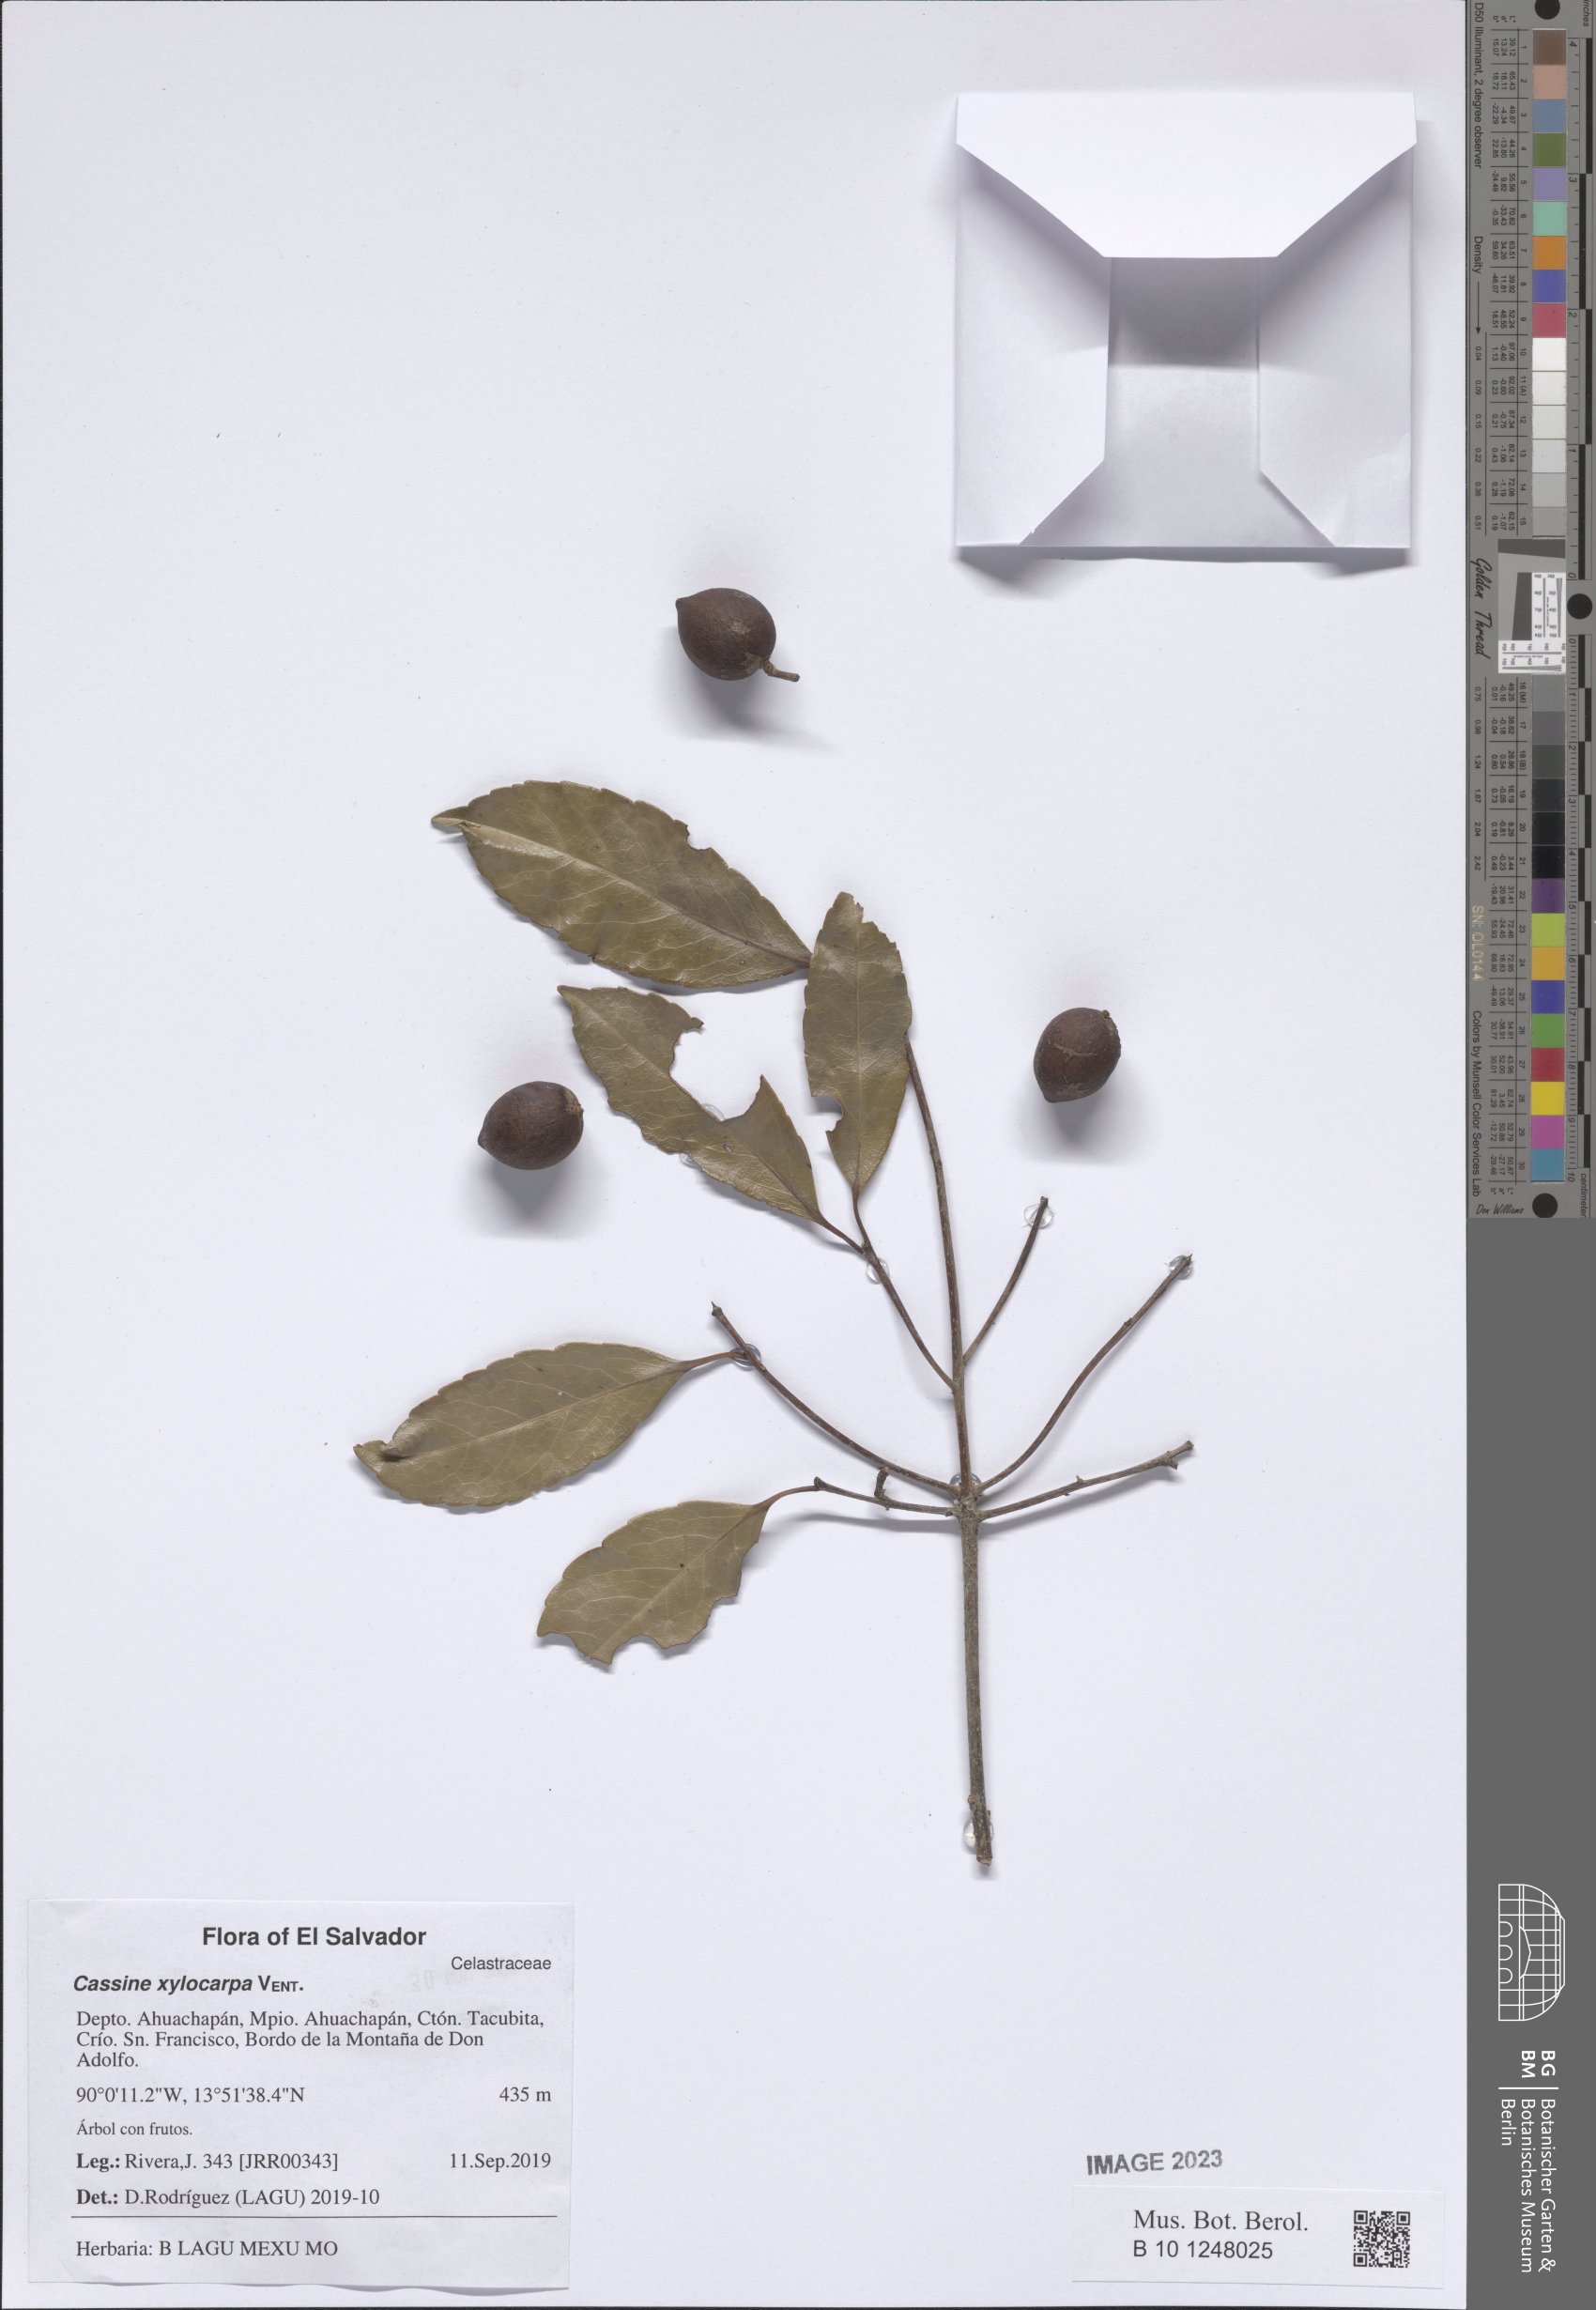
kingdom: Plantae
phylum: Tracheophyta
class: Magnoliopsida
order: Celastrales
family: Celastraceae
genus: Elaeodendron
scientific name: Elaeodendron xylocarpum
